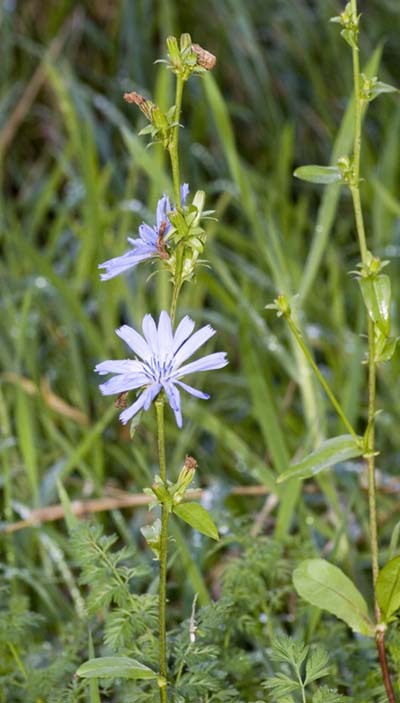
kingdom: Plantae
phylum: Tracheophyta
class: Magnoliopsida
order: Asterales
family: Asteraceae
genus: Cichorium
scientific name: Cichorium intybus
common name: Chicory
